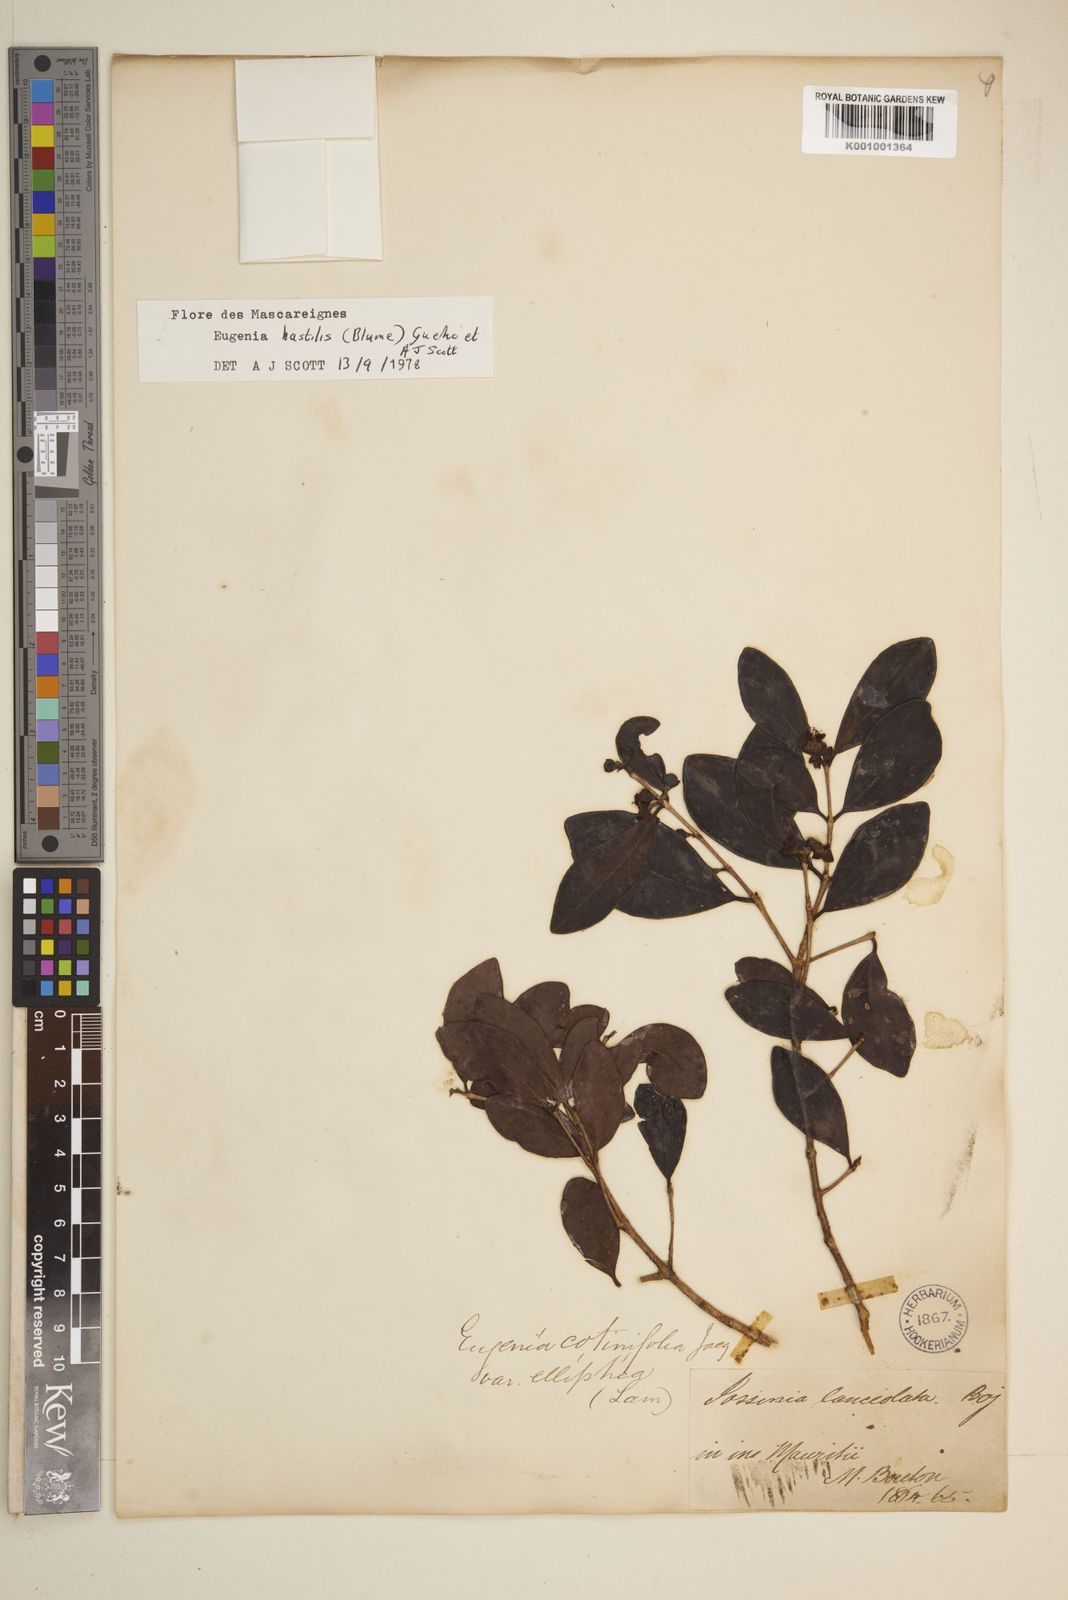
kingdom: Plantae
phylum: Tracheophyta
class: Magnoliopsida
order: Myrtales
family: Myrtaceae
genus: Eugenia
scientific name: Eugenia
